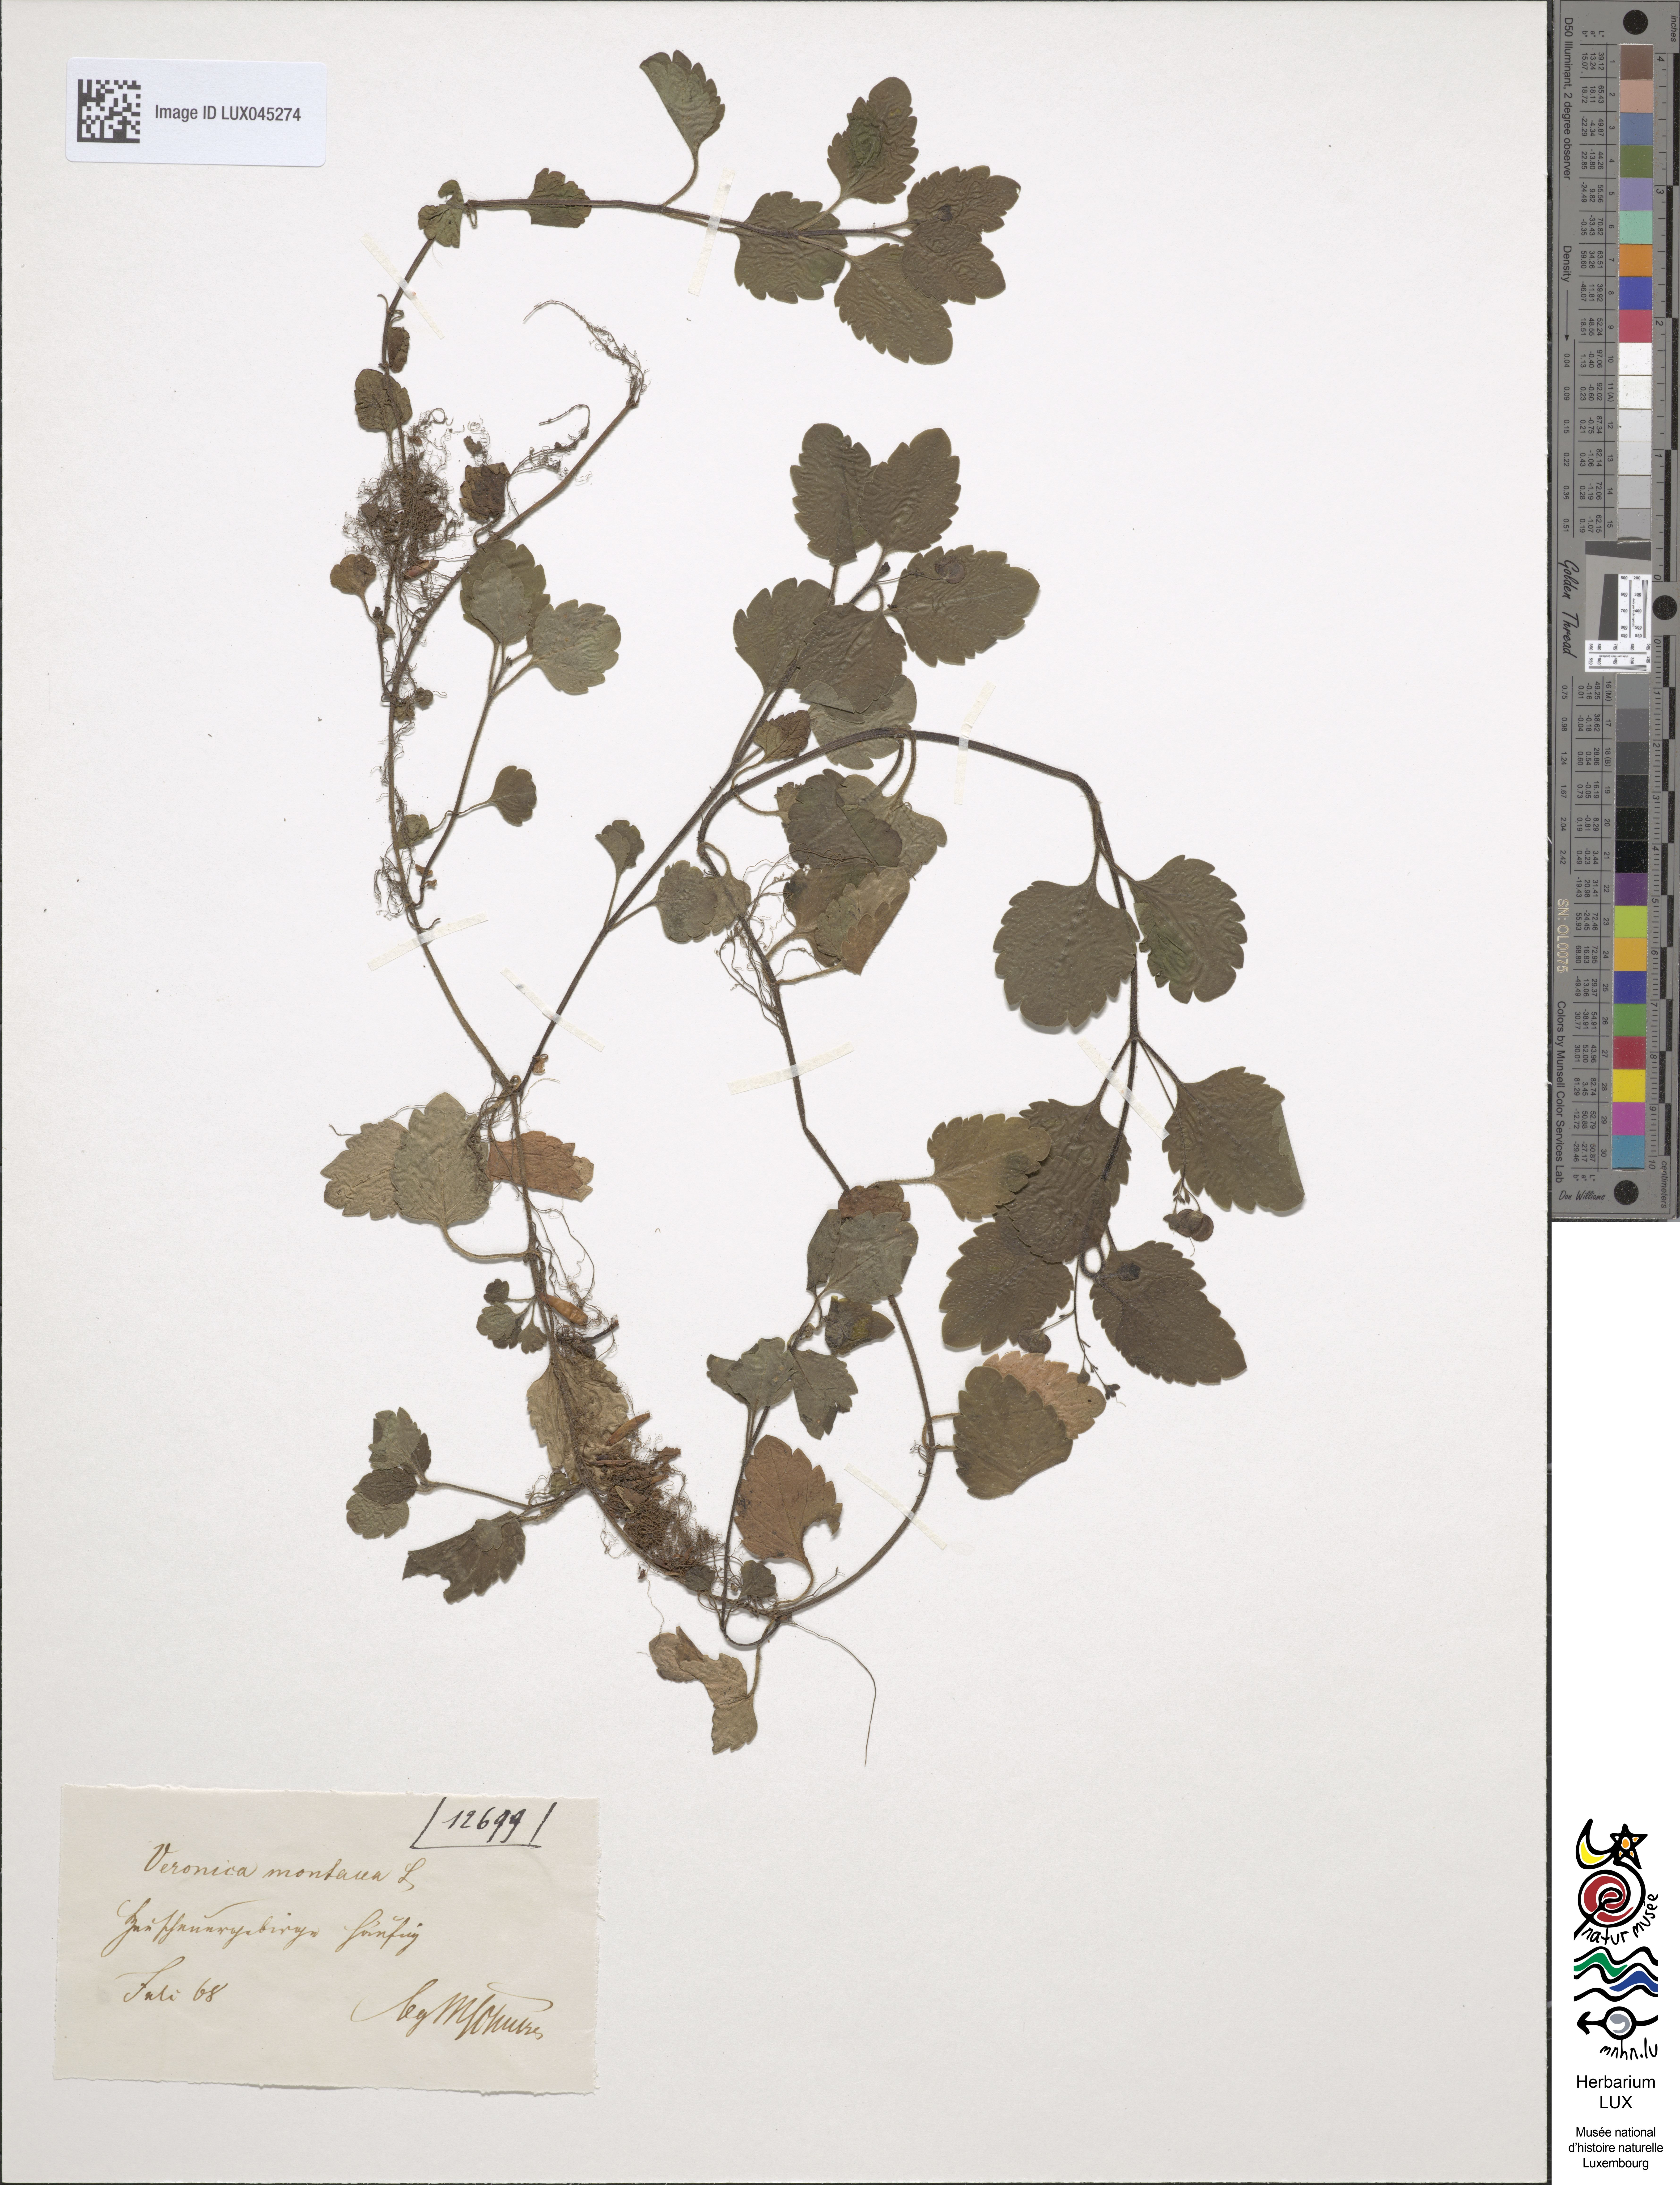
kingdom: Plantae
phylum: Tracheophyta
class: Magnoliopsida
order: Lamiales
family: Plantaginaceae
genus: Veronica
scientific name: Veronica montana
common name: Wood speedwell
